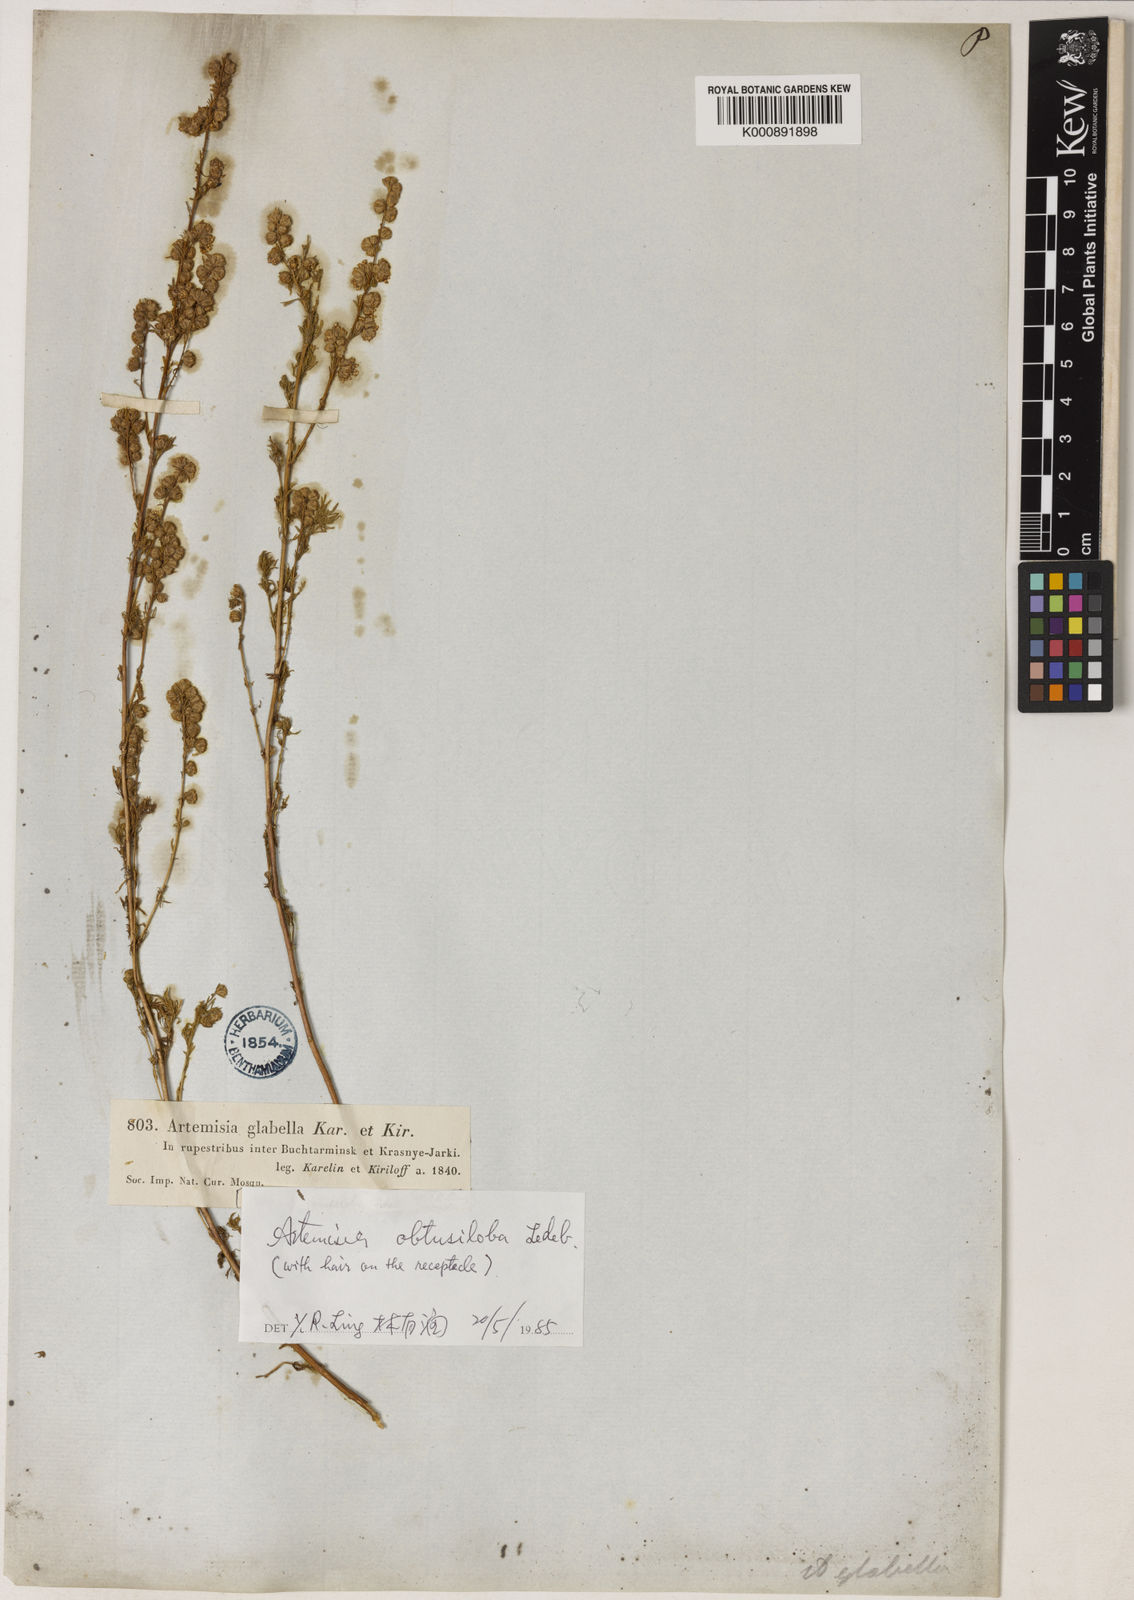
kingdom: Plantae
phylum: Tracheophyta
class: Magnoliopsida
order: Asterales
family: Asteraceae
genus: Artemisia
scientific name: Artemisia obtusiloba
